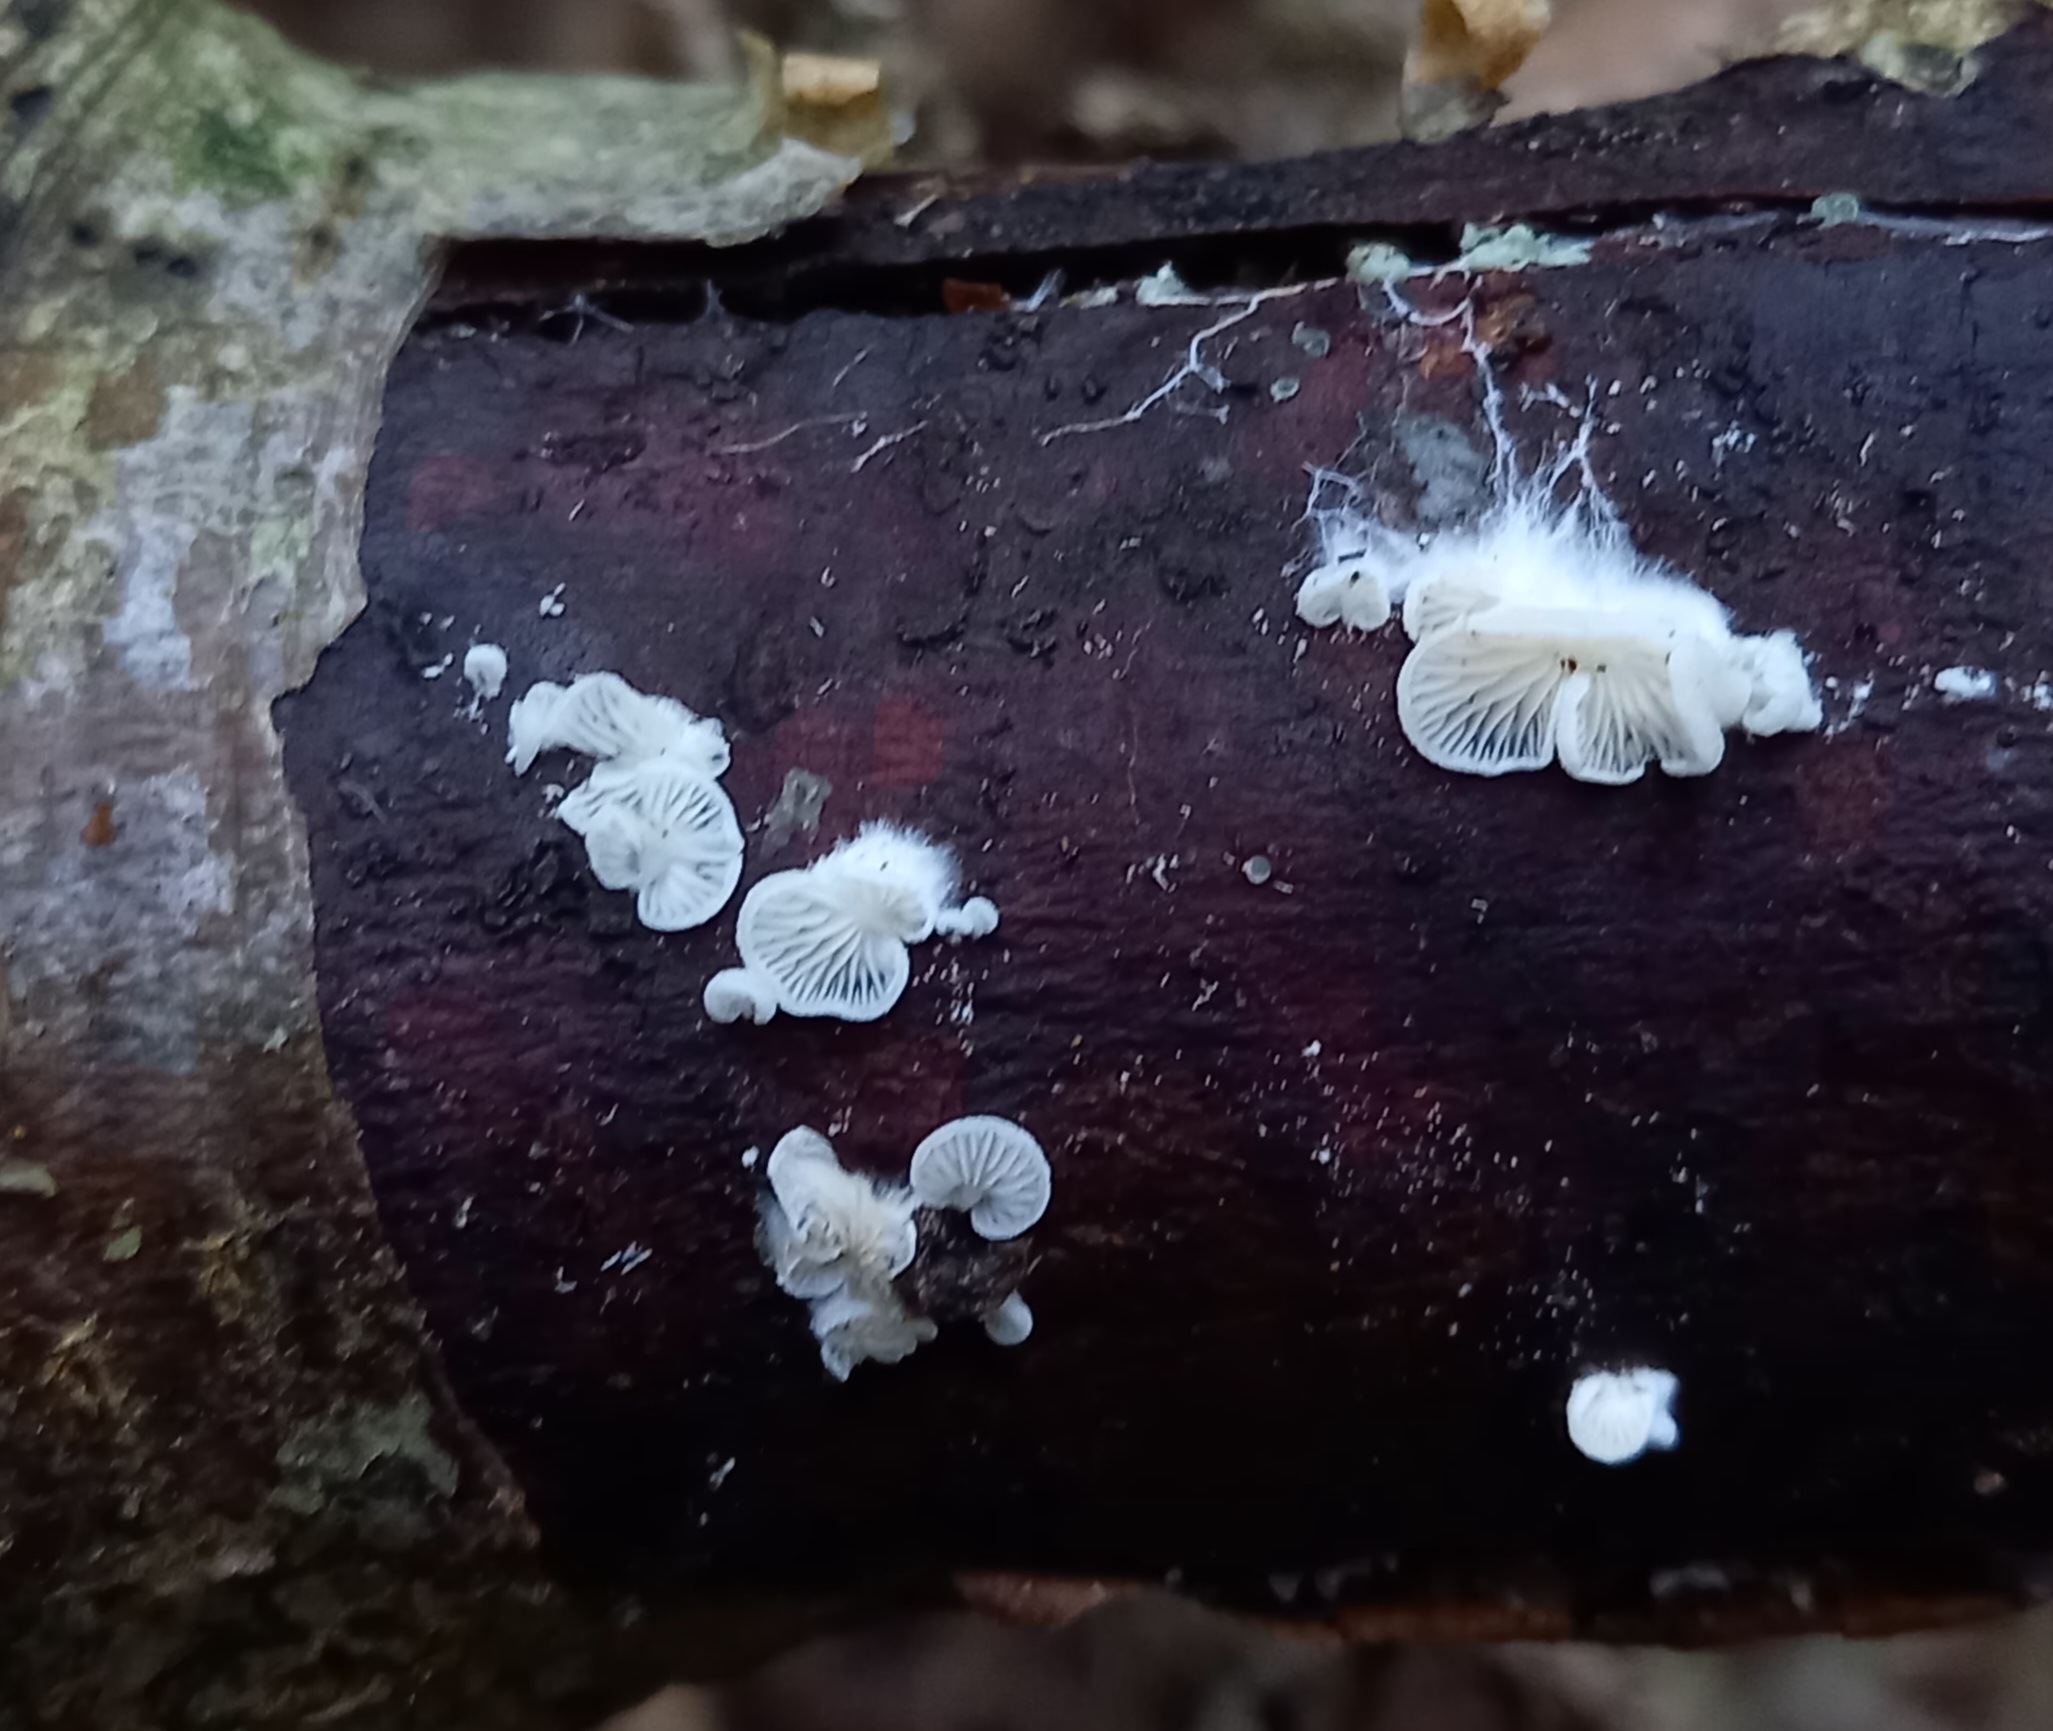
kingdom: Fungi
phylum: Basidiomycota
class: Agaricomycetes
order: Agaricales
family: Entolomataceae
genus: Clitopilus
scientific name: Clitopilus hobsonii
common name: Miller's oysterling
